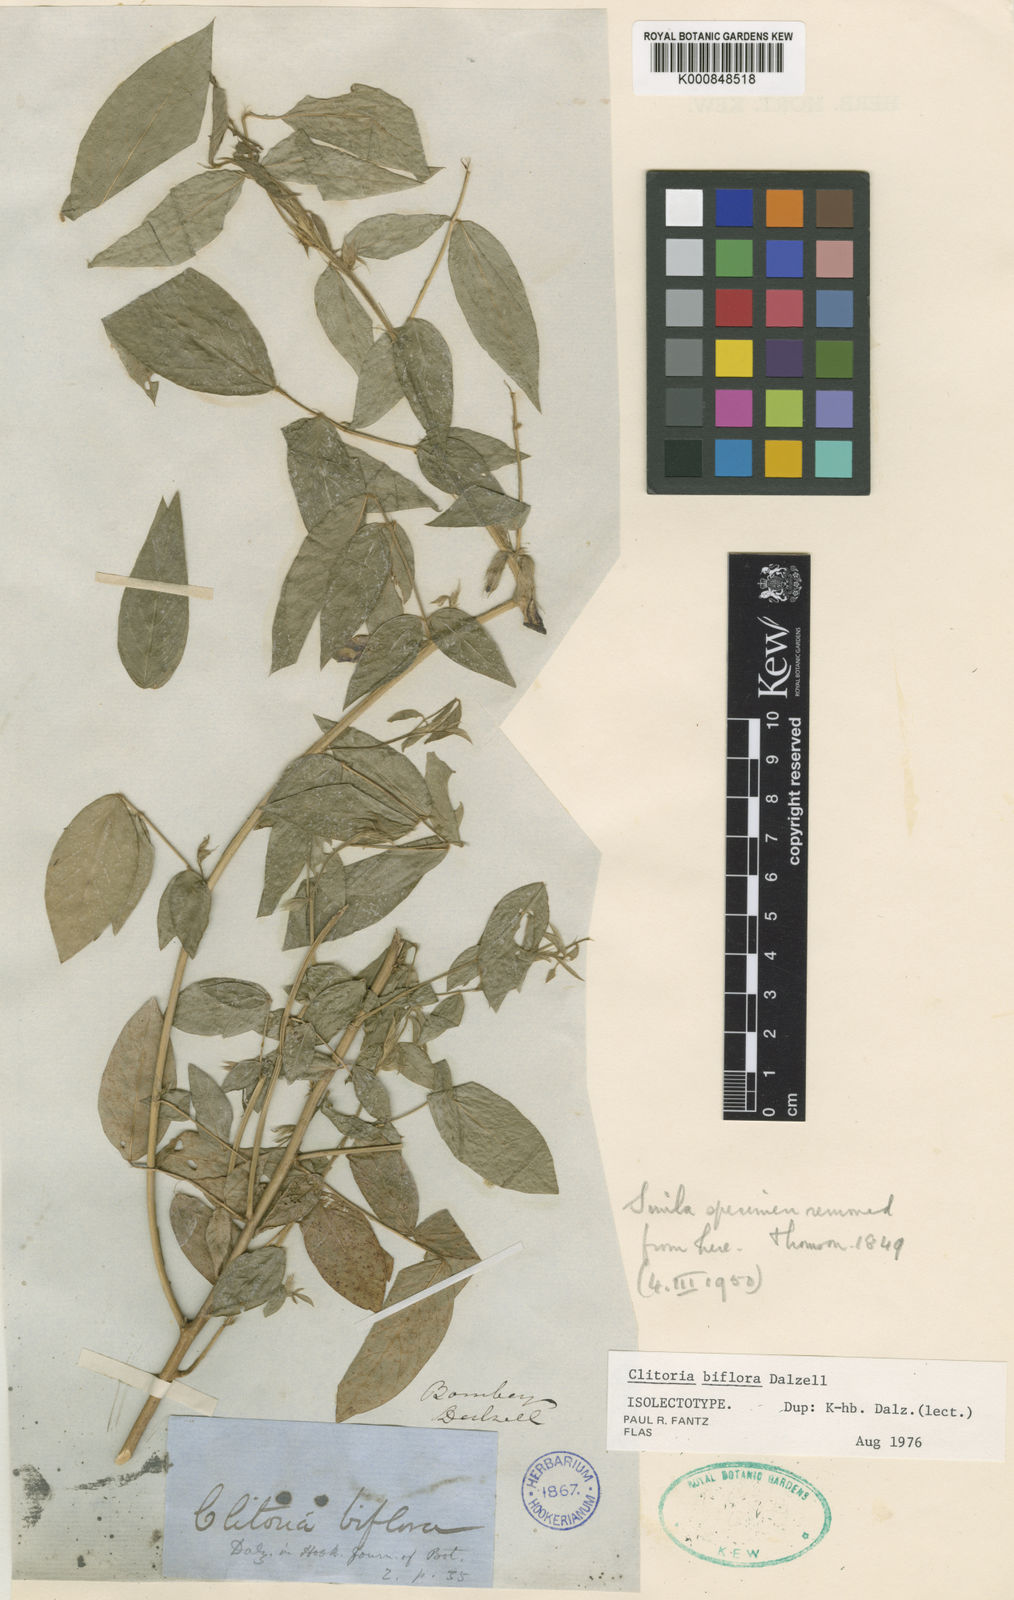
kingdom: Plantae
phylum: Tracheophyta
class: Magnoliopsida
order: Fabales
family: Fabaceae
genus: Clitoria
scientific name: Clitoria annua
